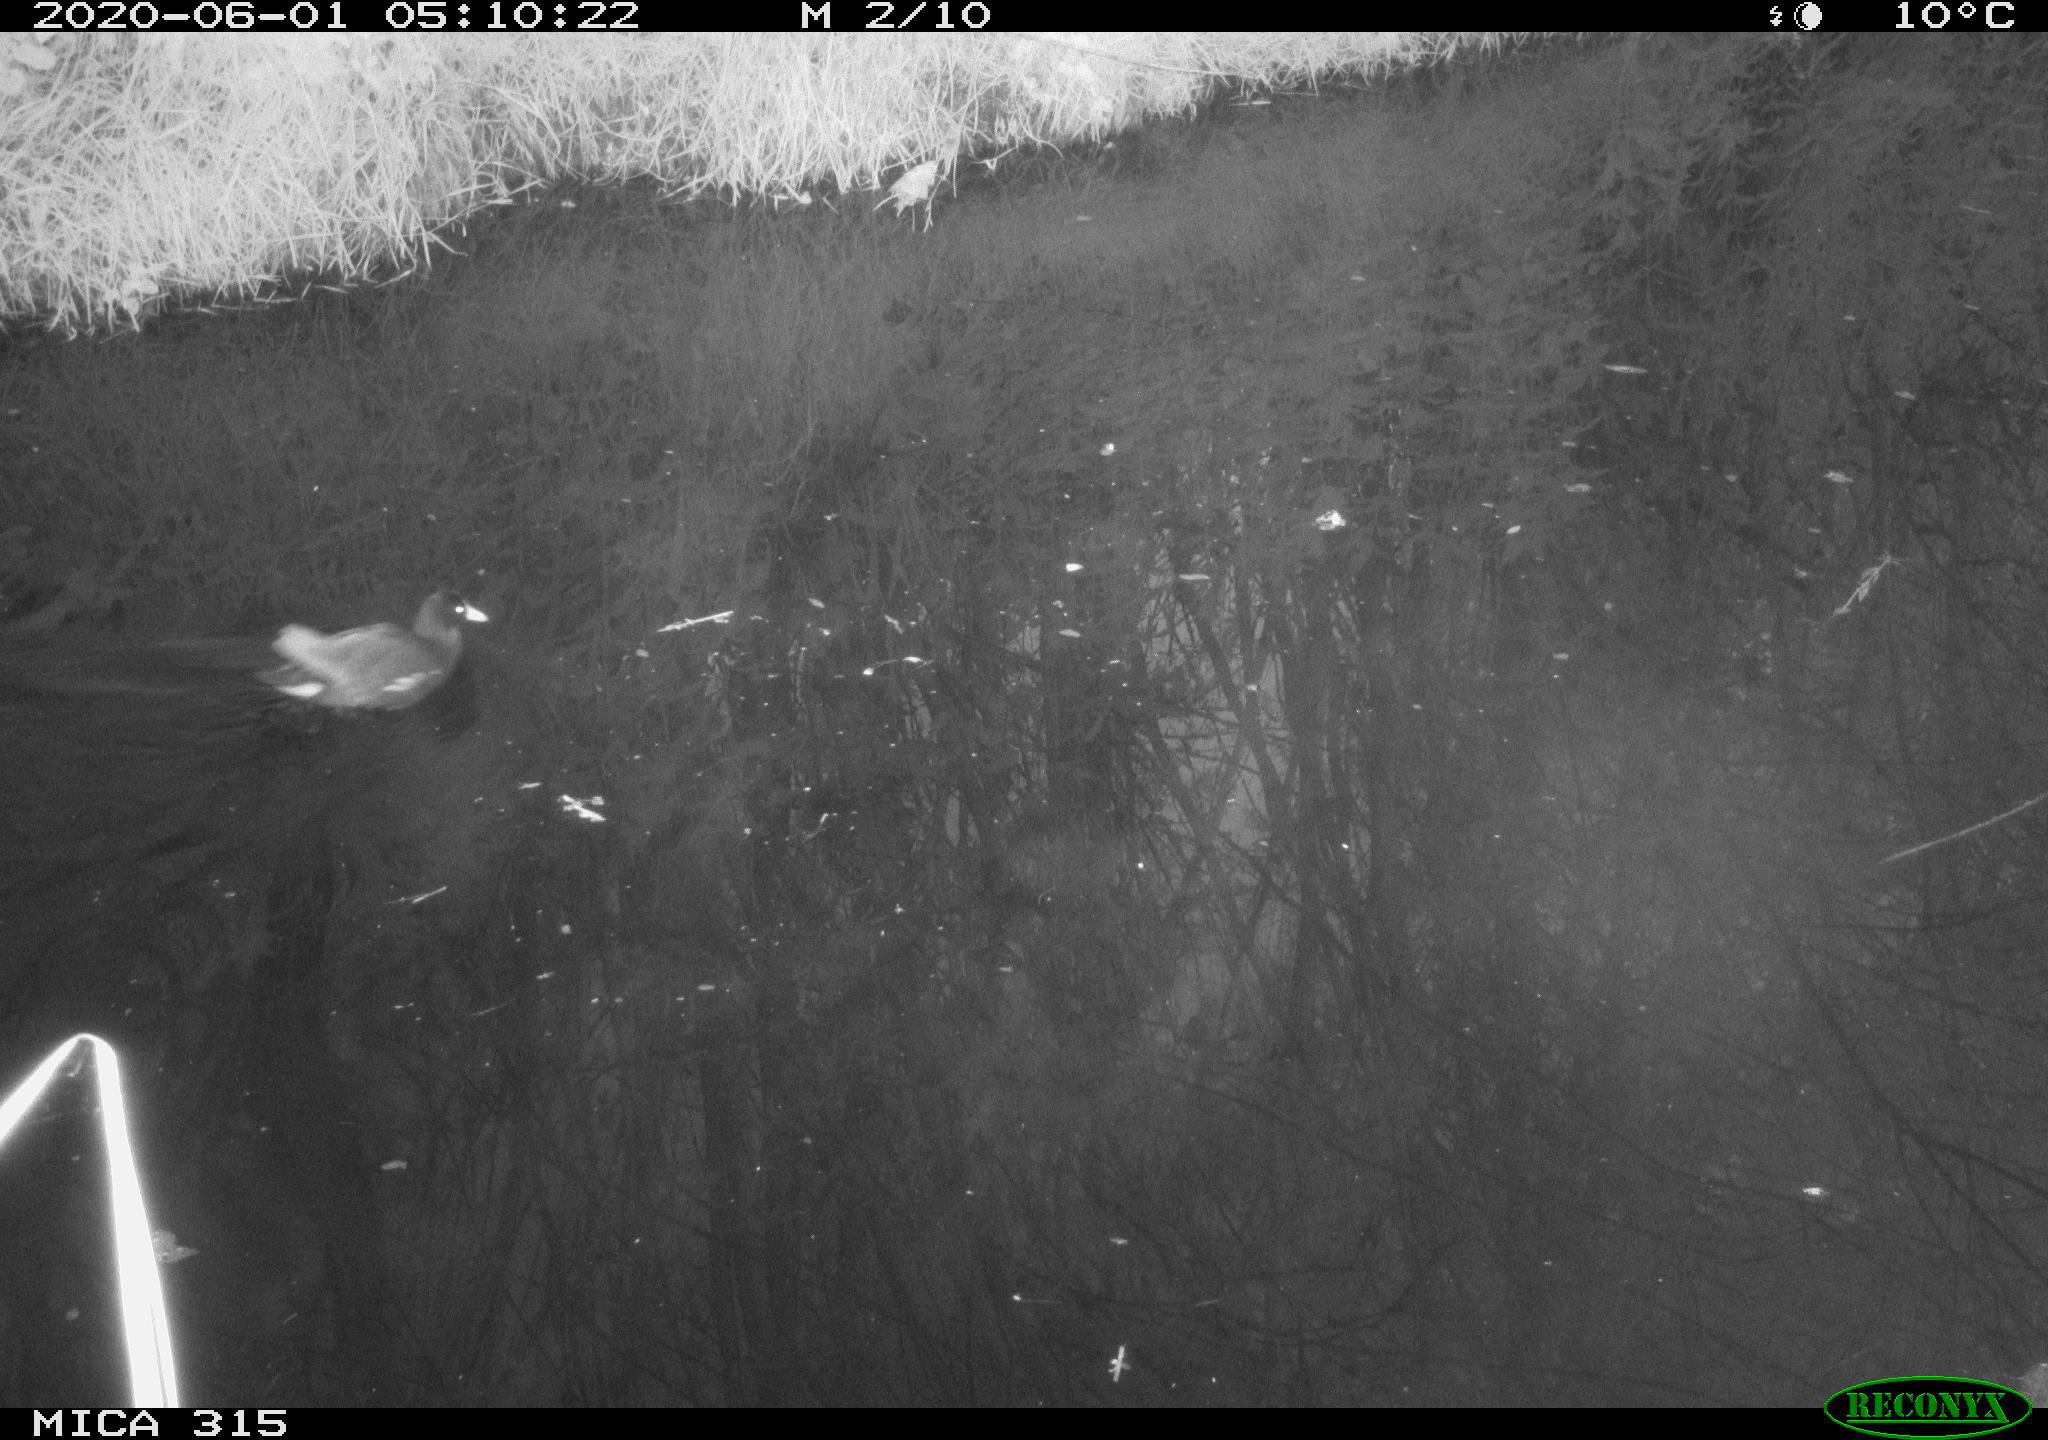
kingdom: Animalia
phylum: Chordata
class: Aves
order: Gruiformes
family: Rallidae
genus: Gallinula
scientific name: Gallinula chloropus
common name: Common moorhen
